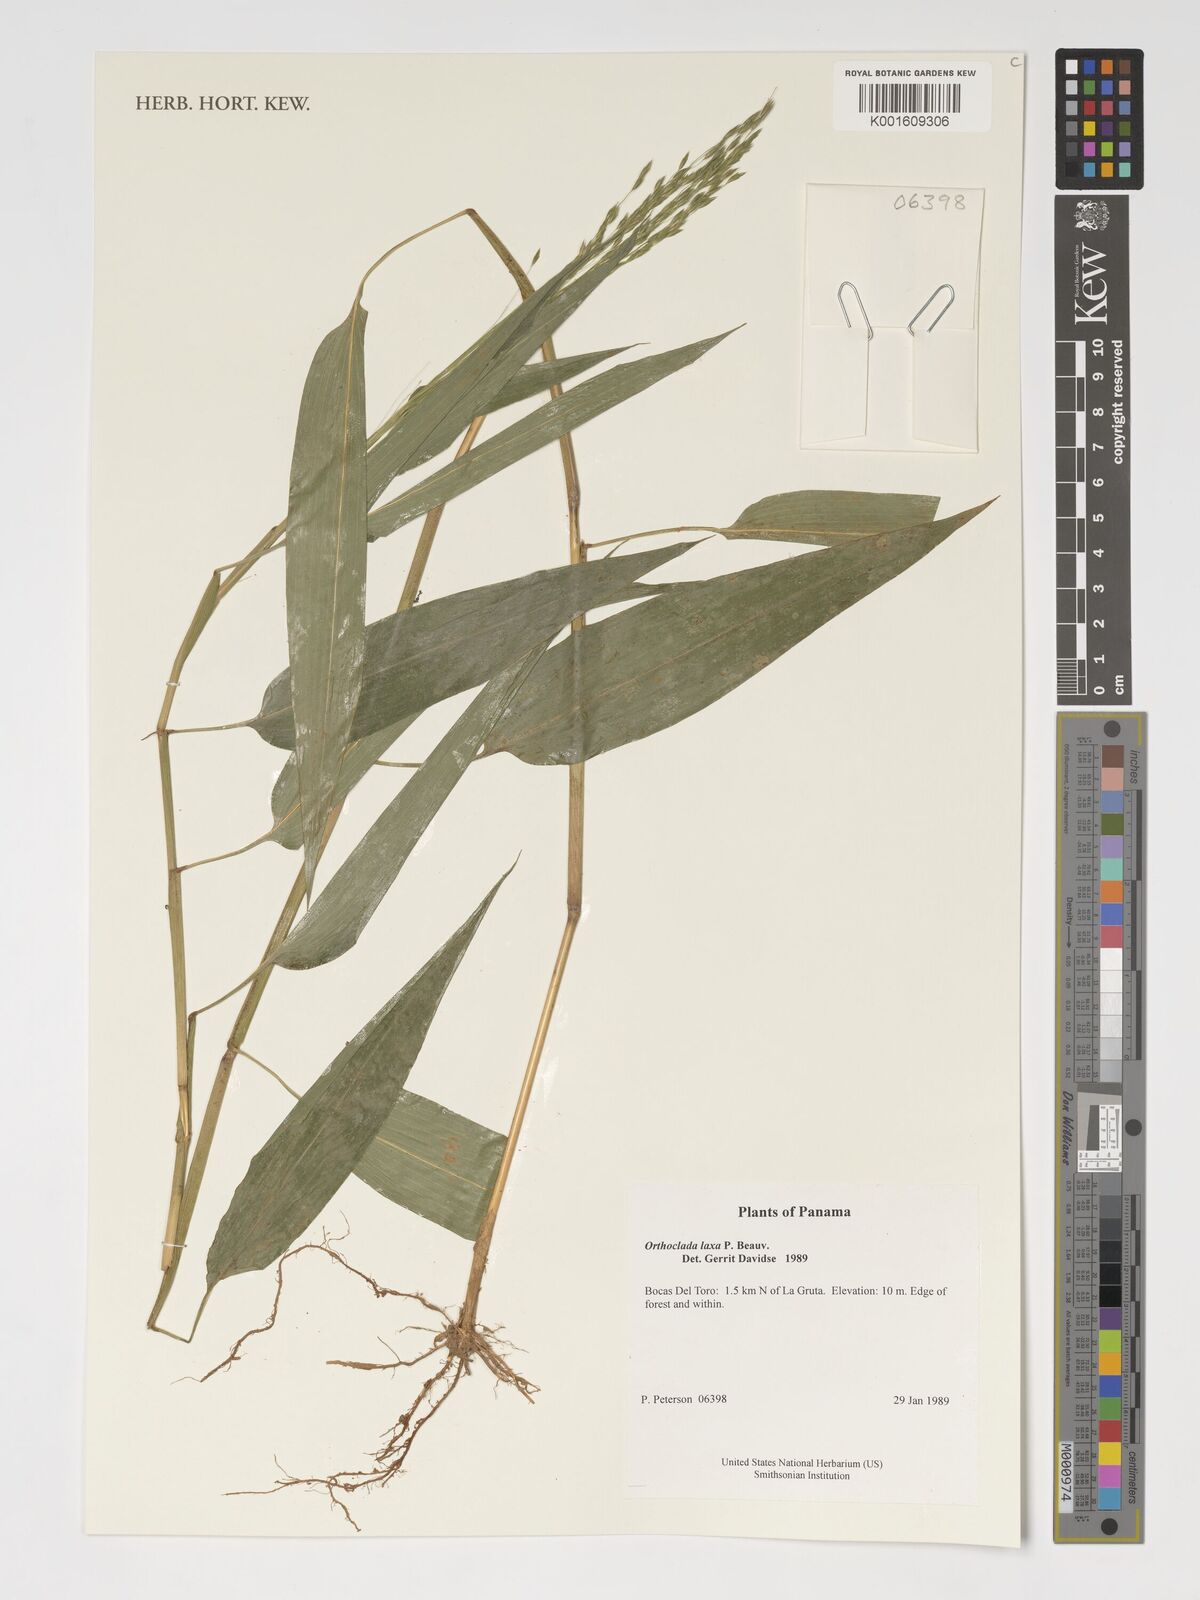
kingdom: Plantae
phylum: Tracheophyta
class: Liliopsida
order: Poales
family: Poaceae
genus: Orthoclada
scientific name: Orthoclada laxa
